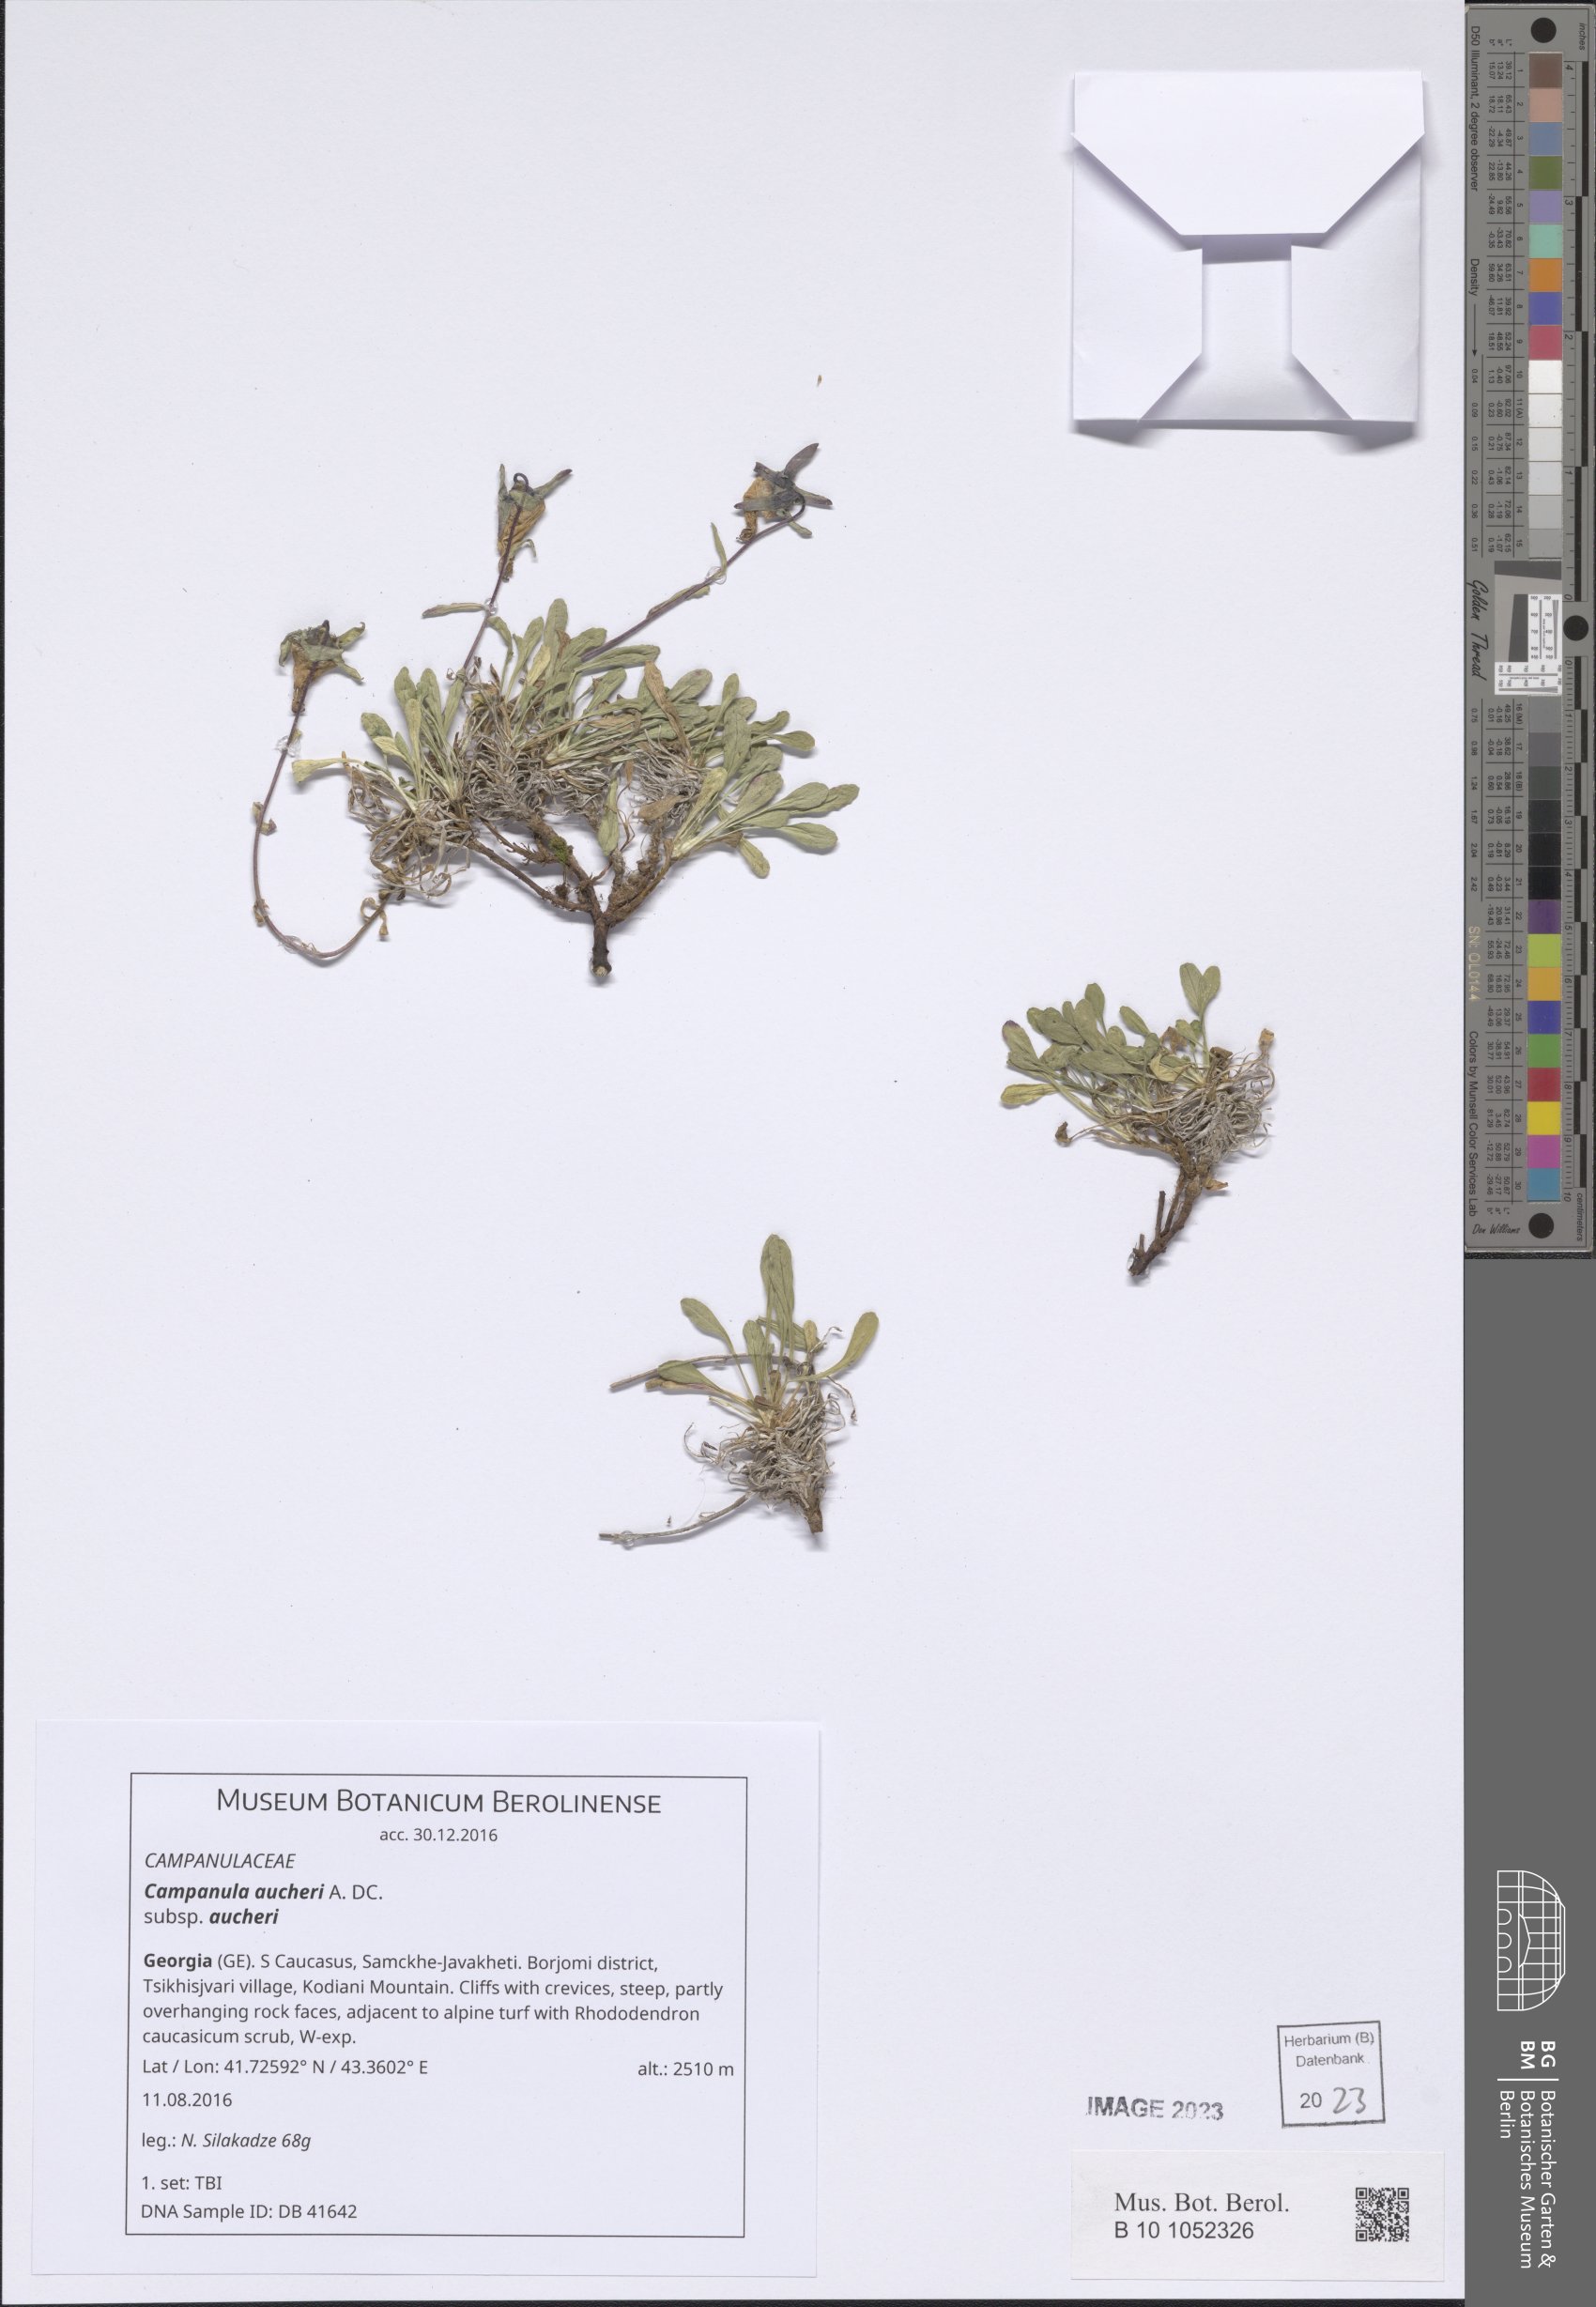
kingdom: Plantae
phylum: Tracheophyta
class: Magnoliopsida
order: Asterales
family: Campanulaceae
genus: Campanula
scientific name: Campanula saxifraga
